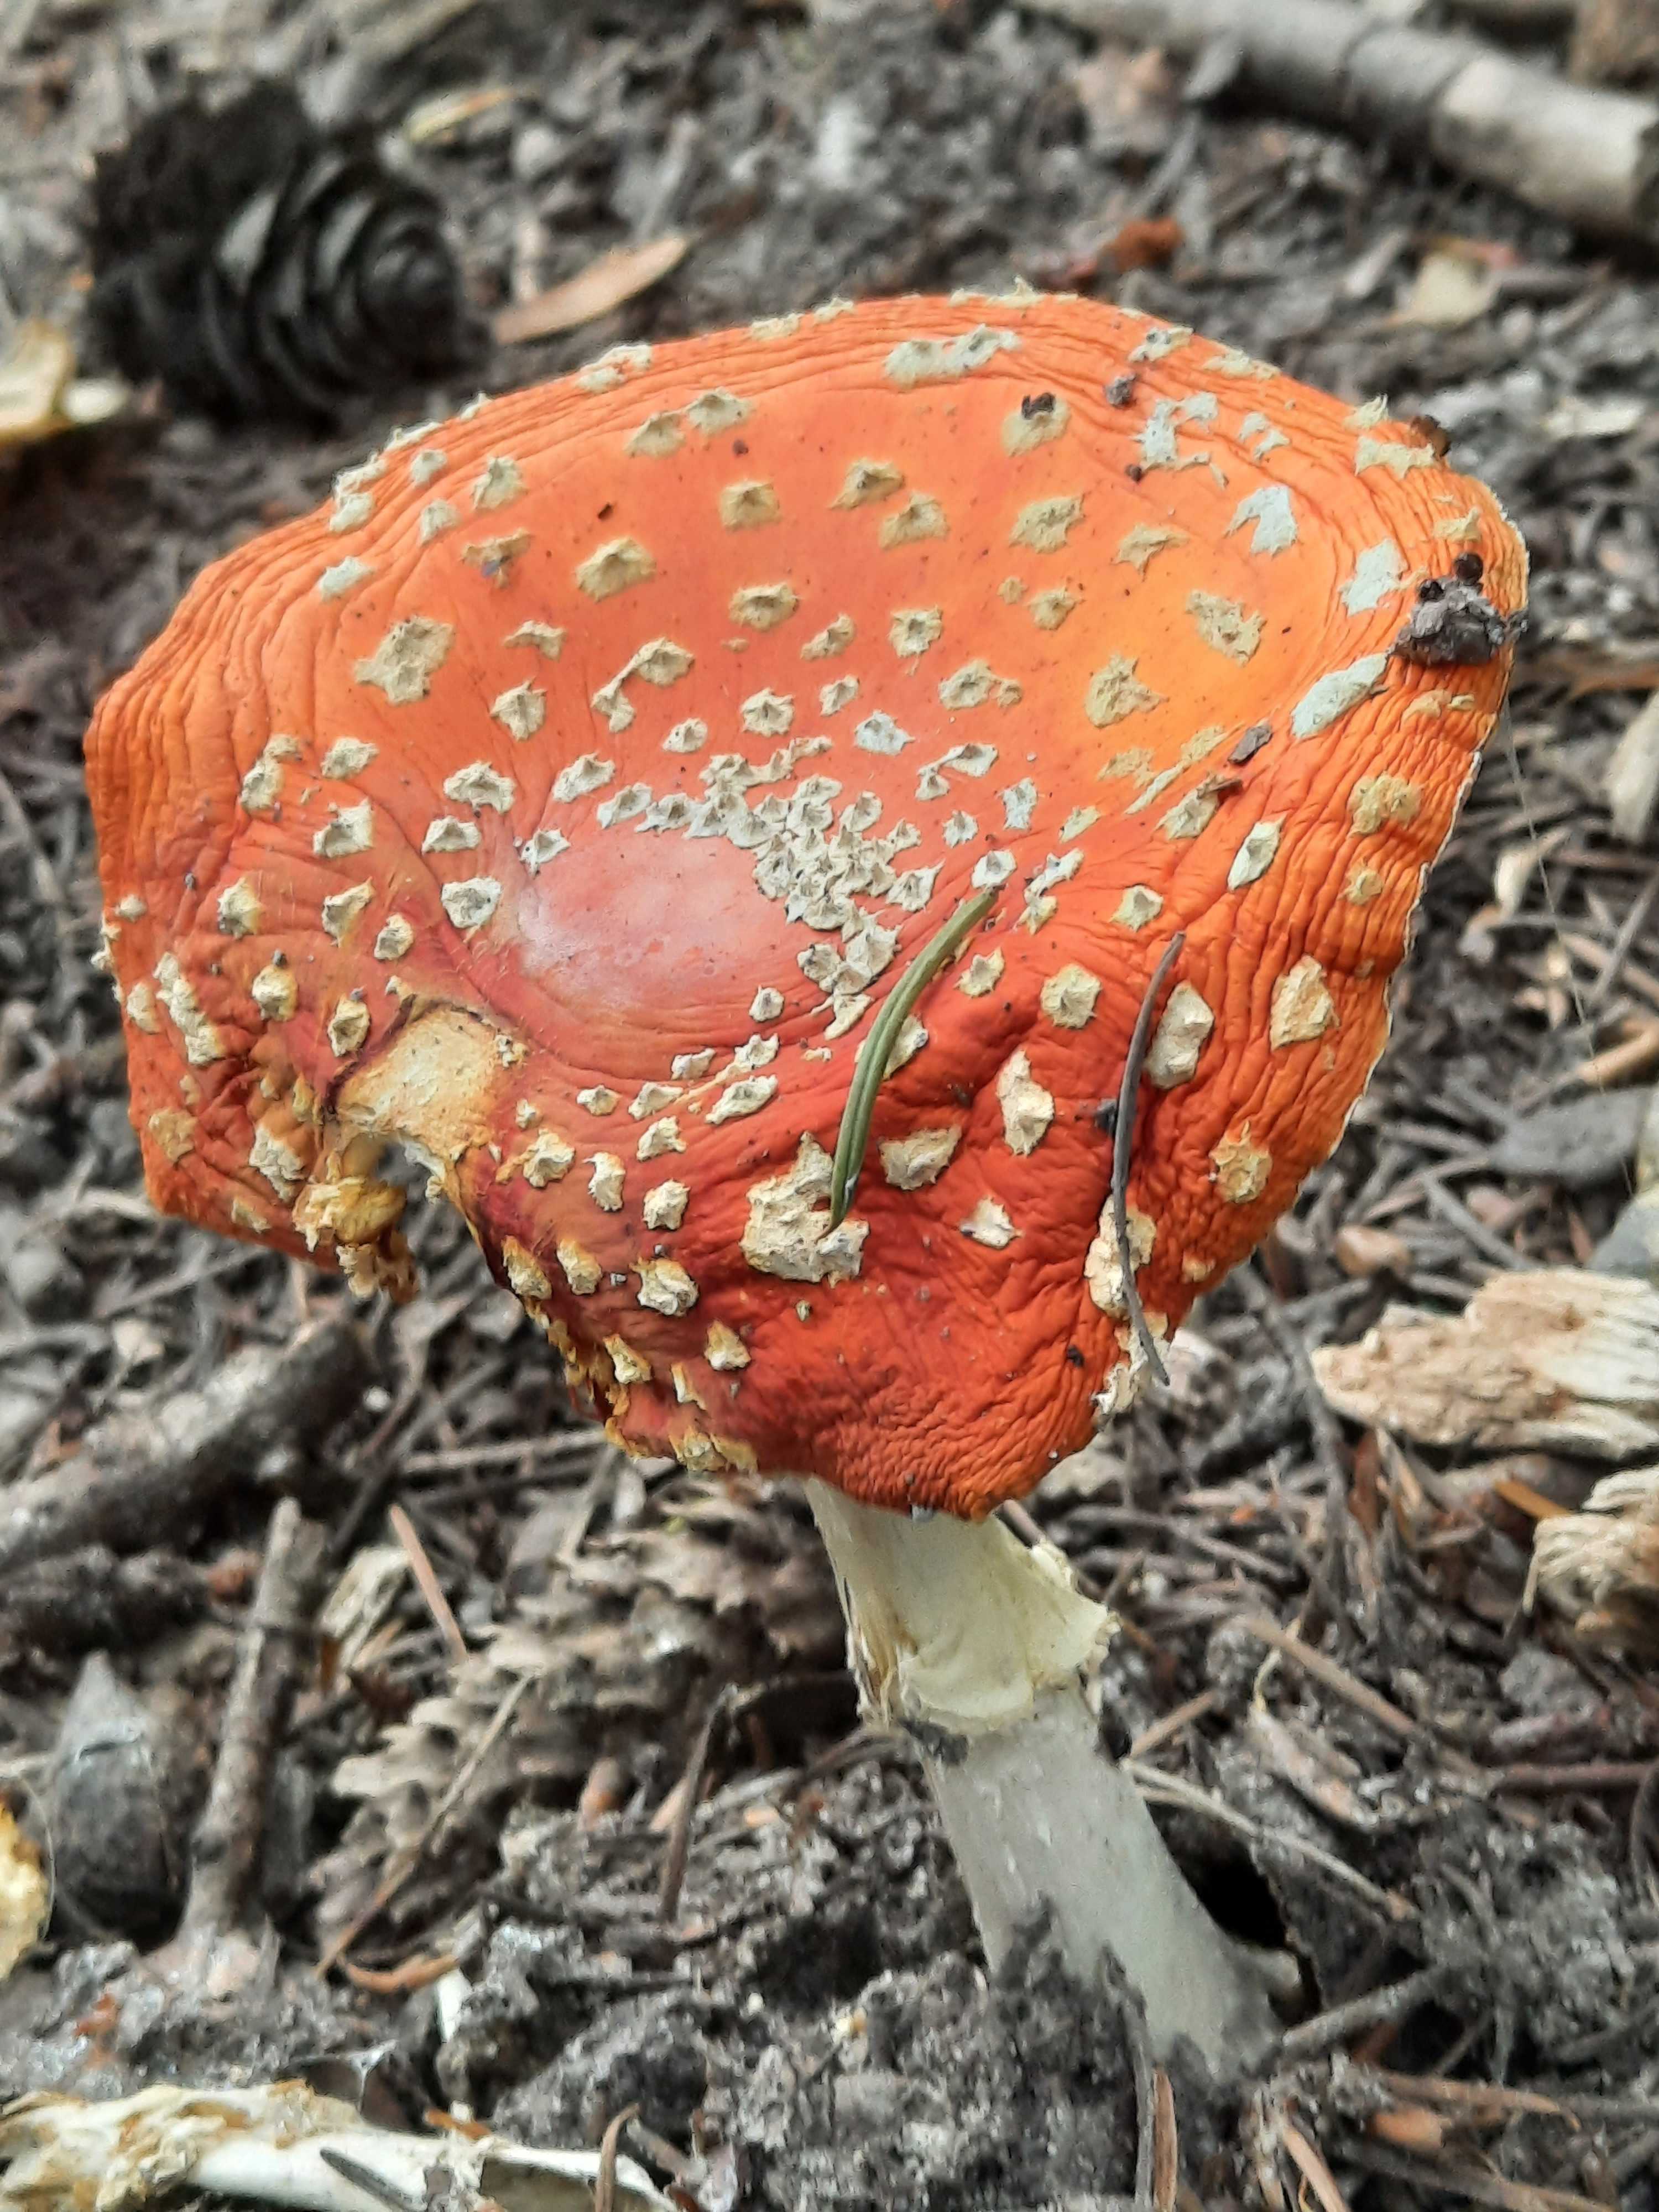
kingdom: Fungi
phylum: Basidiomycota
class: Agaricomycetes
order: Agaricales
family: Amanitaceae
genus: Amanita
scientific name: Amanita muscaria
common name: rød fluesvamp
